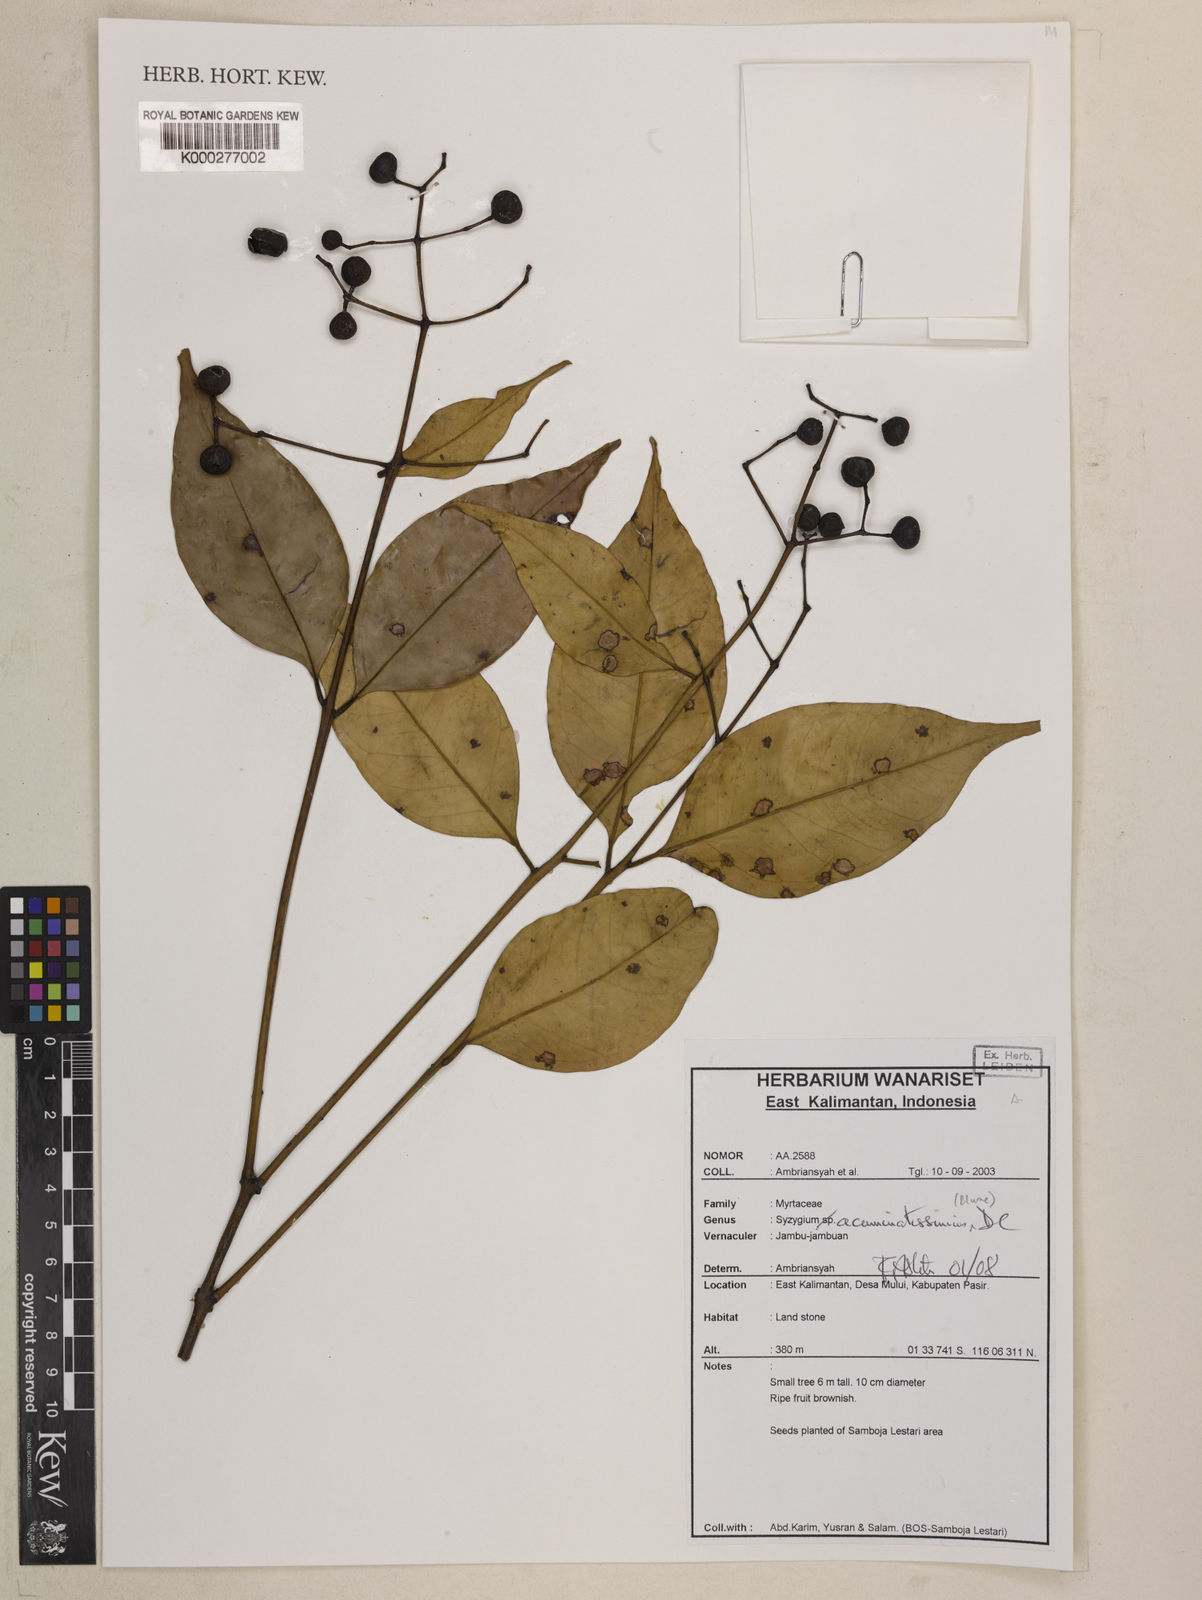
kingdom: Plantae
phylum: Tracheophyta
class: Magnoliopsida
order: Myrtales
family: Myrtaceae
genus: Syzygium
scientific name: Syzygium acuminatissimum
